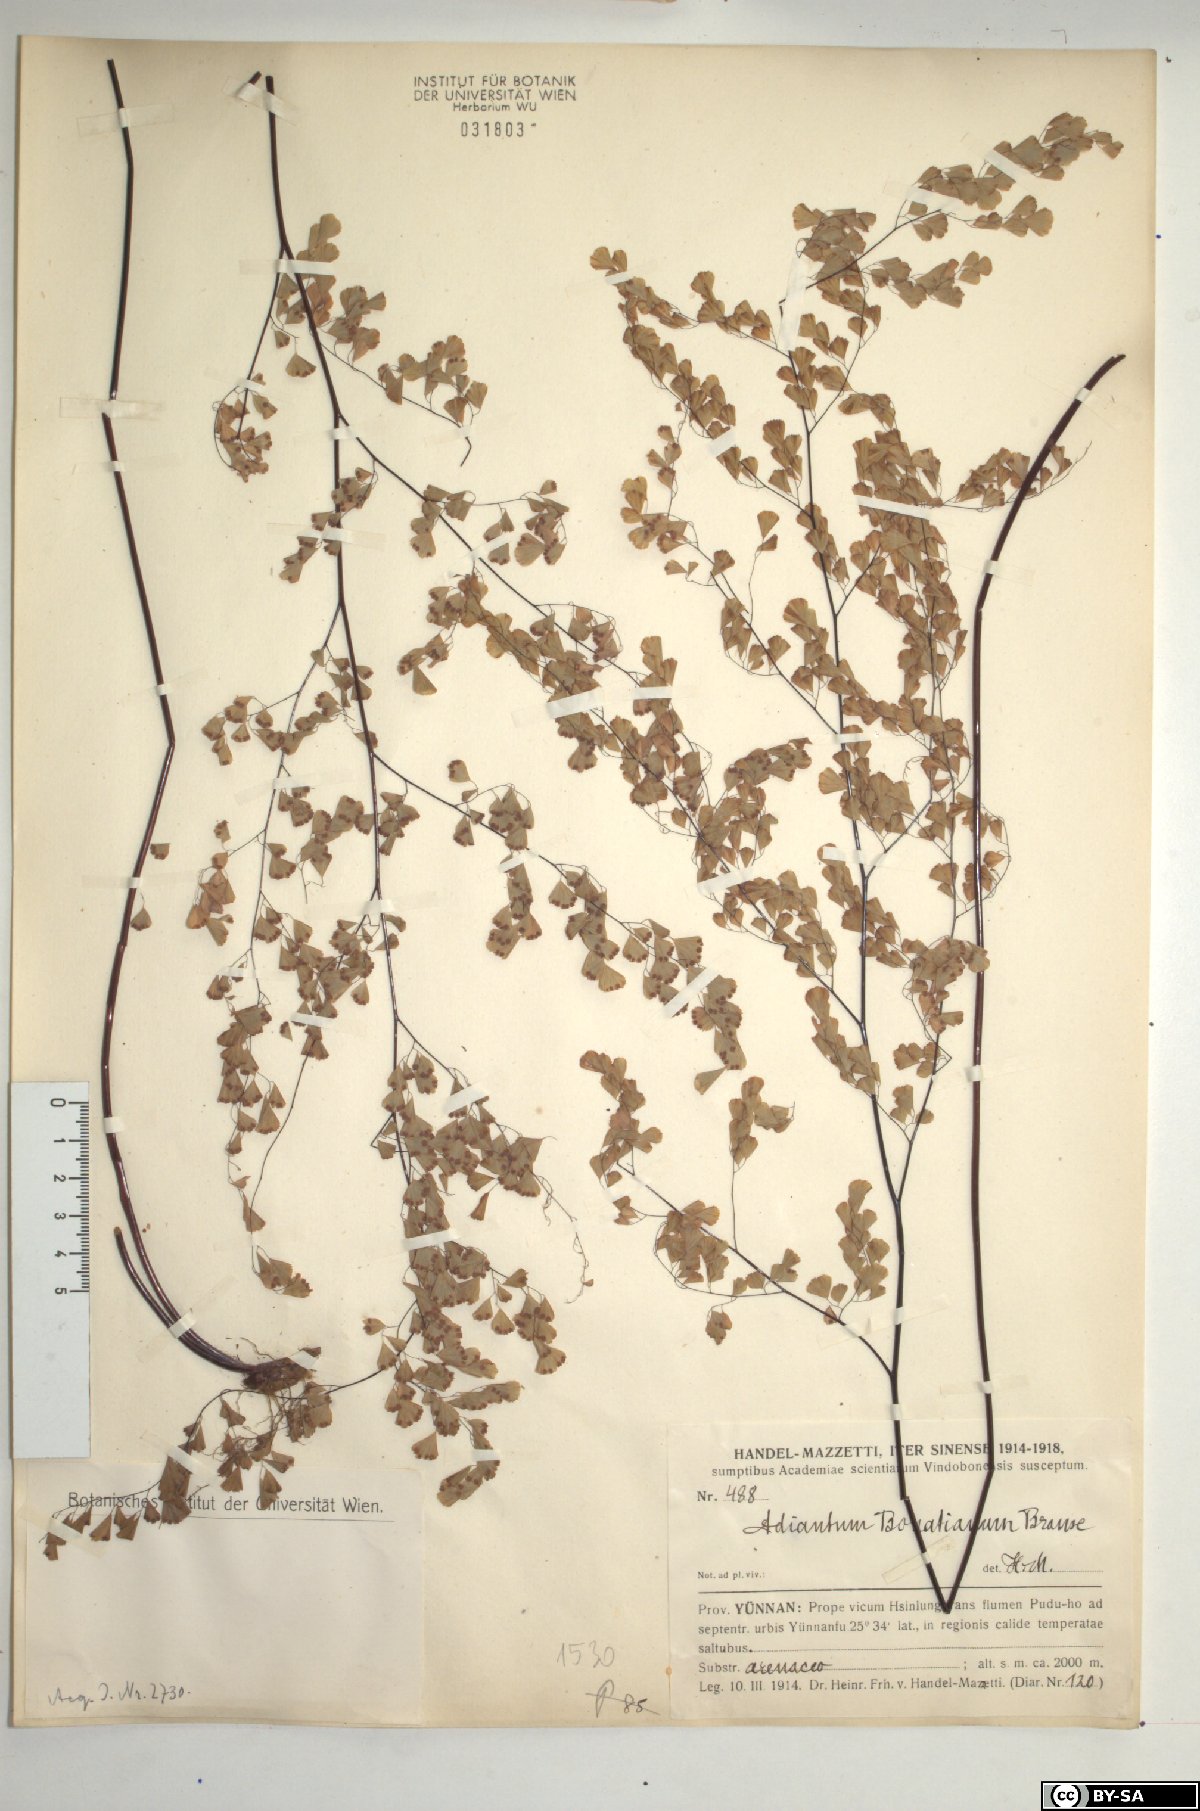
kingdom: Plantae
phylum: Tracheophyta
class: Polypodiopsida
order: Polypodiales
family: Pteridaceae
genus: Adiantum
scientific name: Adiantum venustum
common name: Evergreen maidenhair
